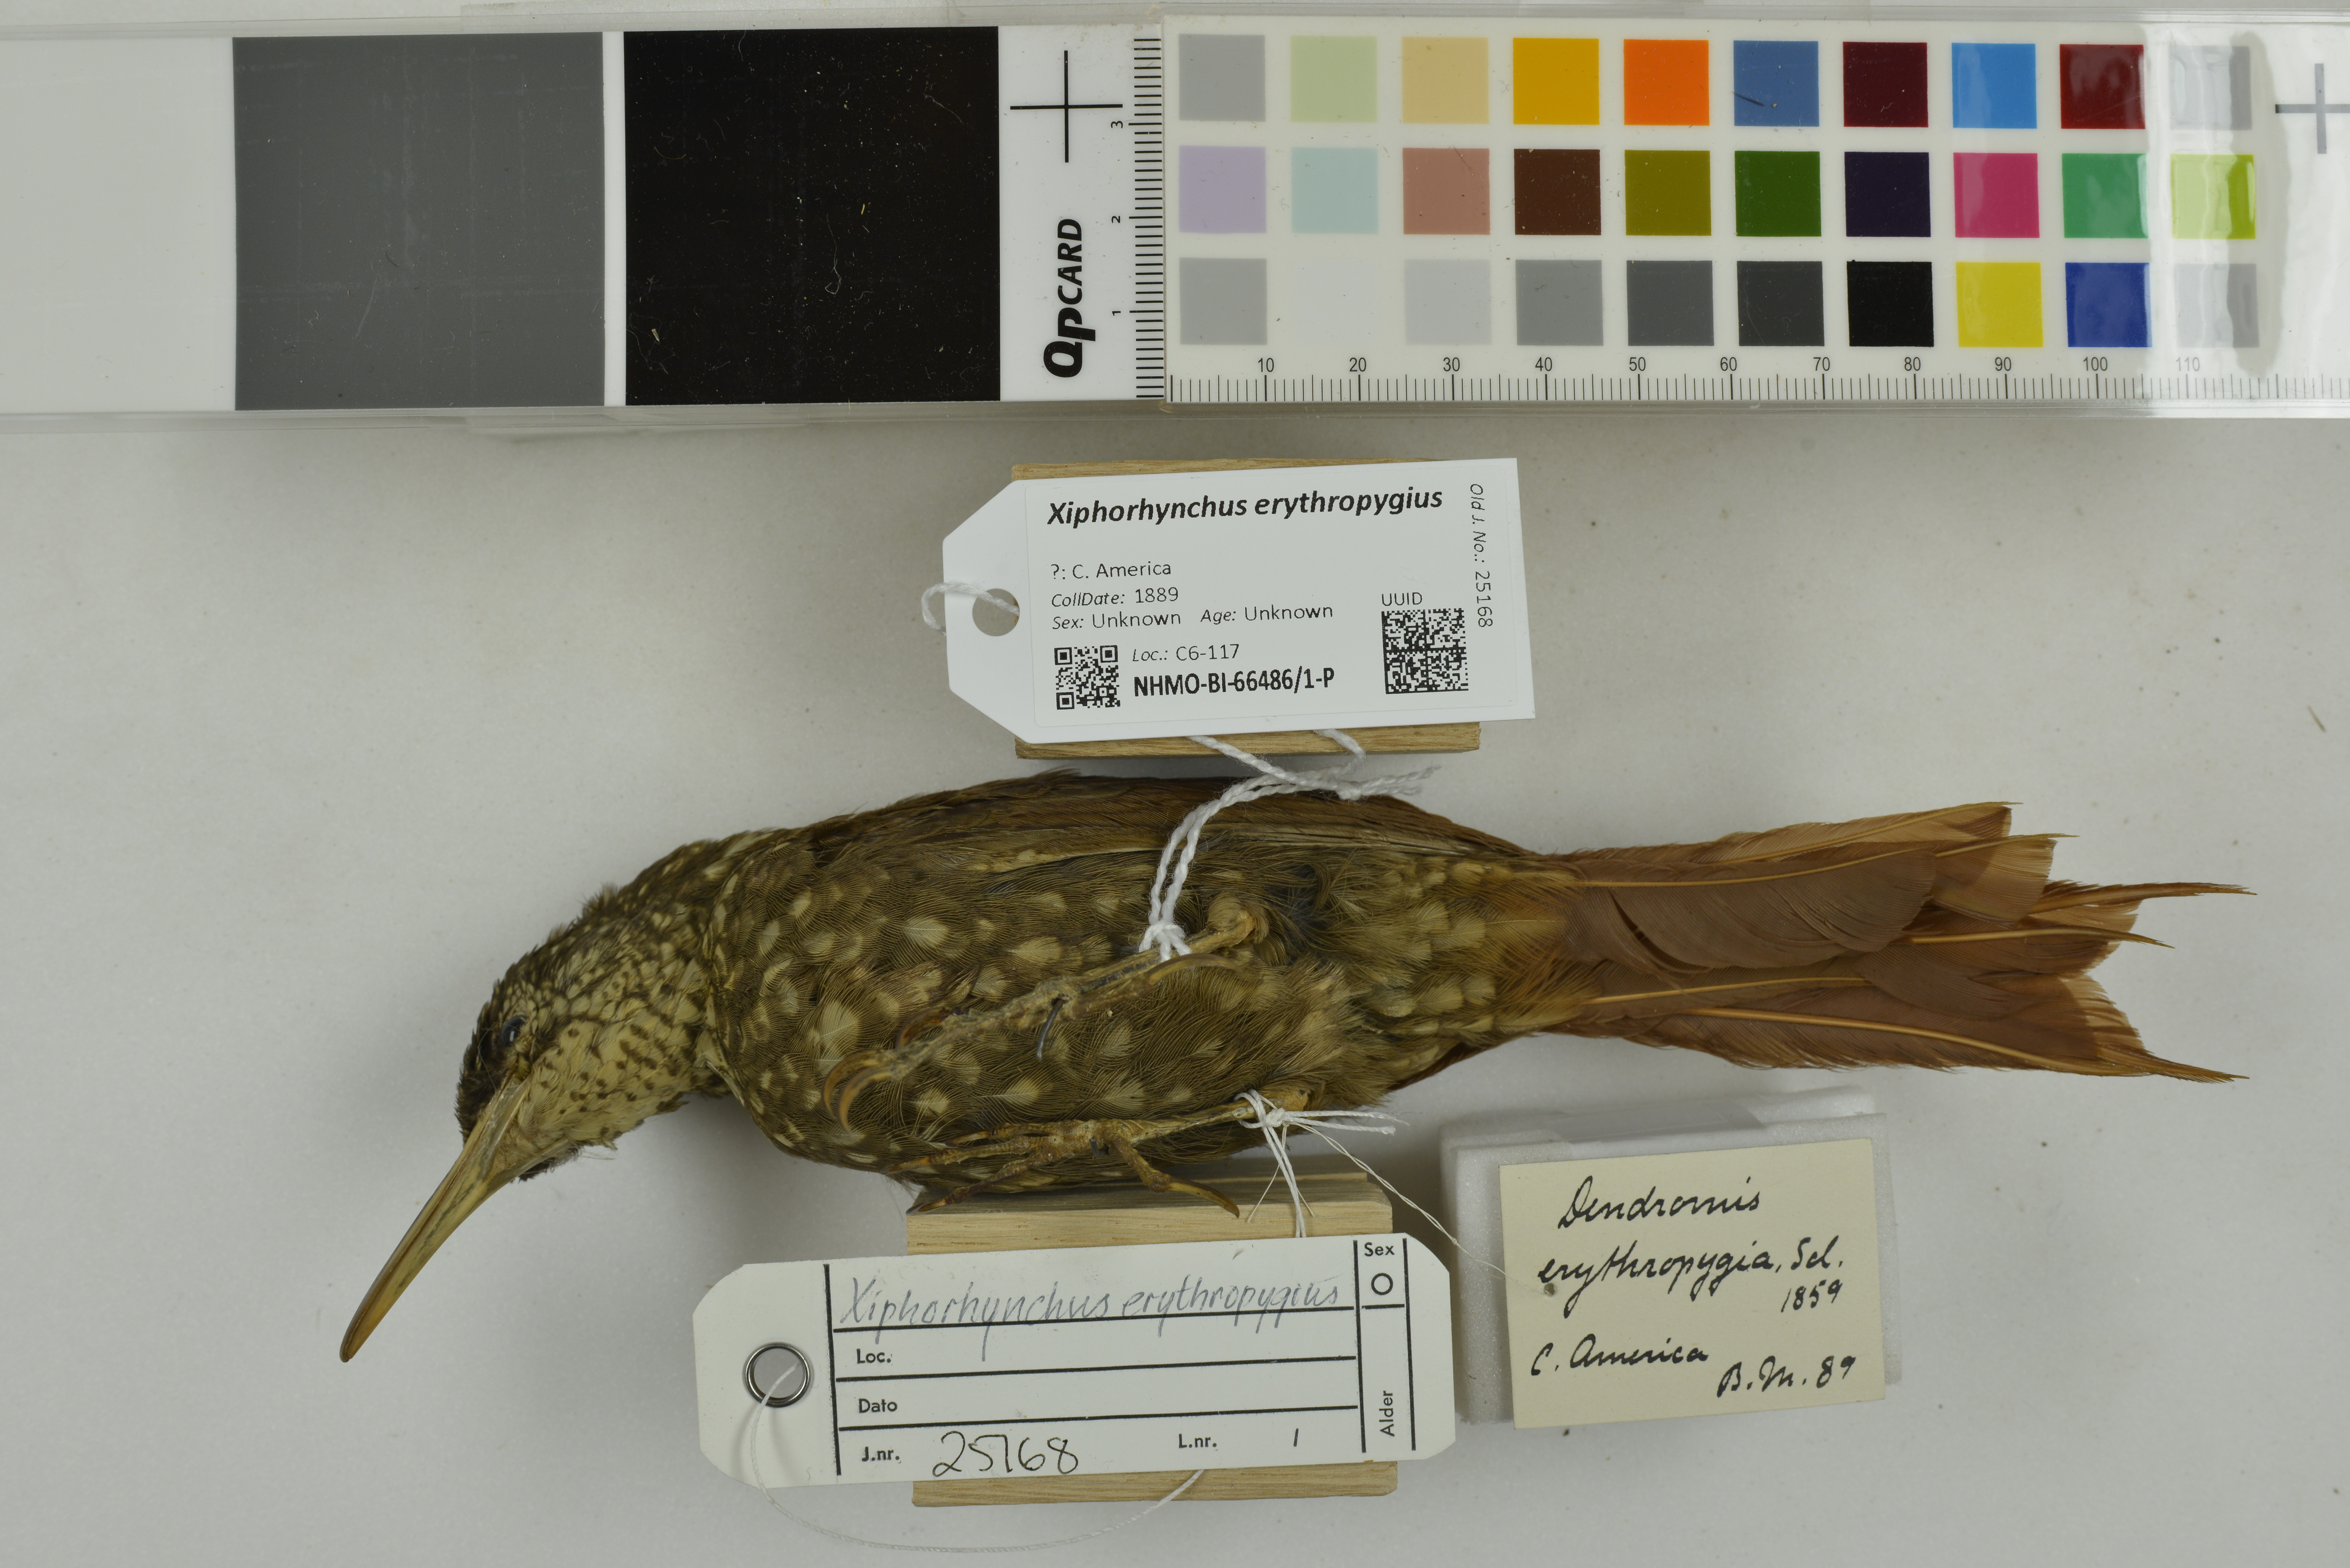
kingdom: Animalia
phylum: Chordata
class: Aves
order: Passeriformes
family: Furnariidae
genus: Xiphorhynchus
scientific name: Xiphorhynchus erythropygius
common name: Spotted woodcreeper
